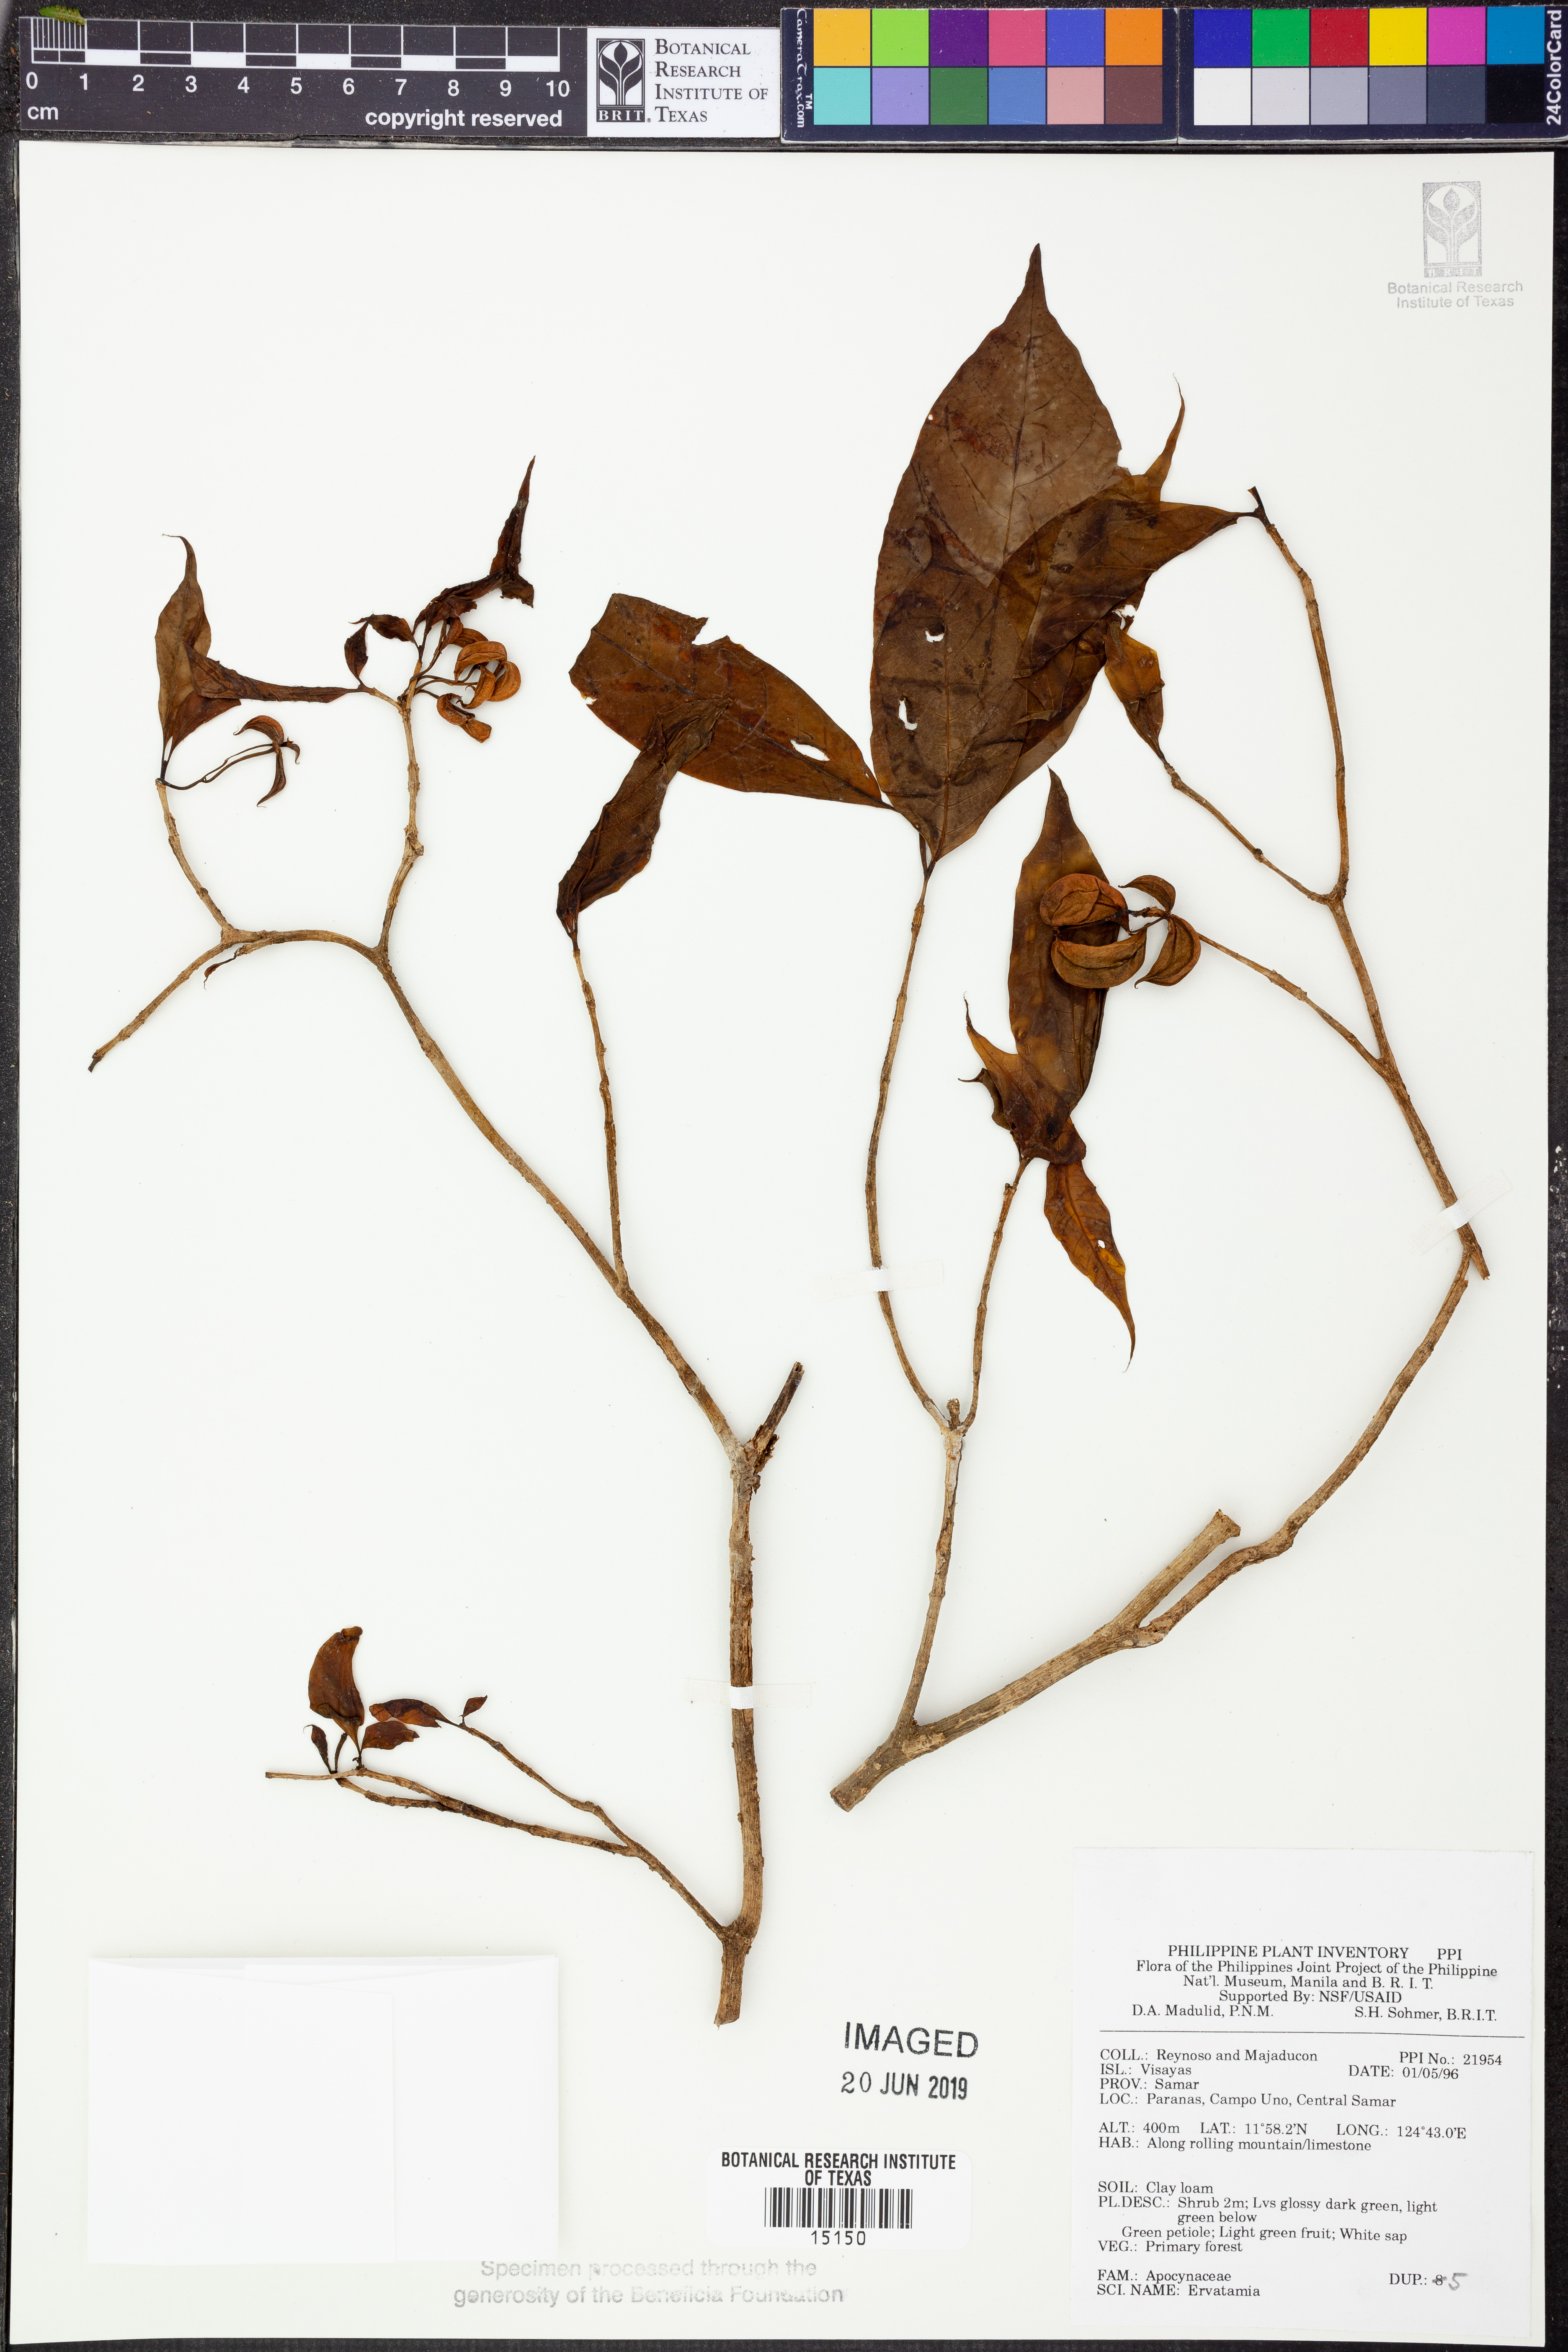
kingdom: Plantae
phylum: Tracheophyta
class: Magnoliopsida
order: Gentianales
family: Apocynaceae
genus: Tabernaemontana
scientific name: Tabernaemontana
